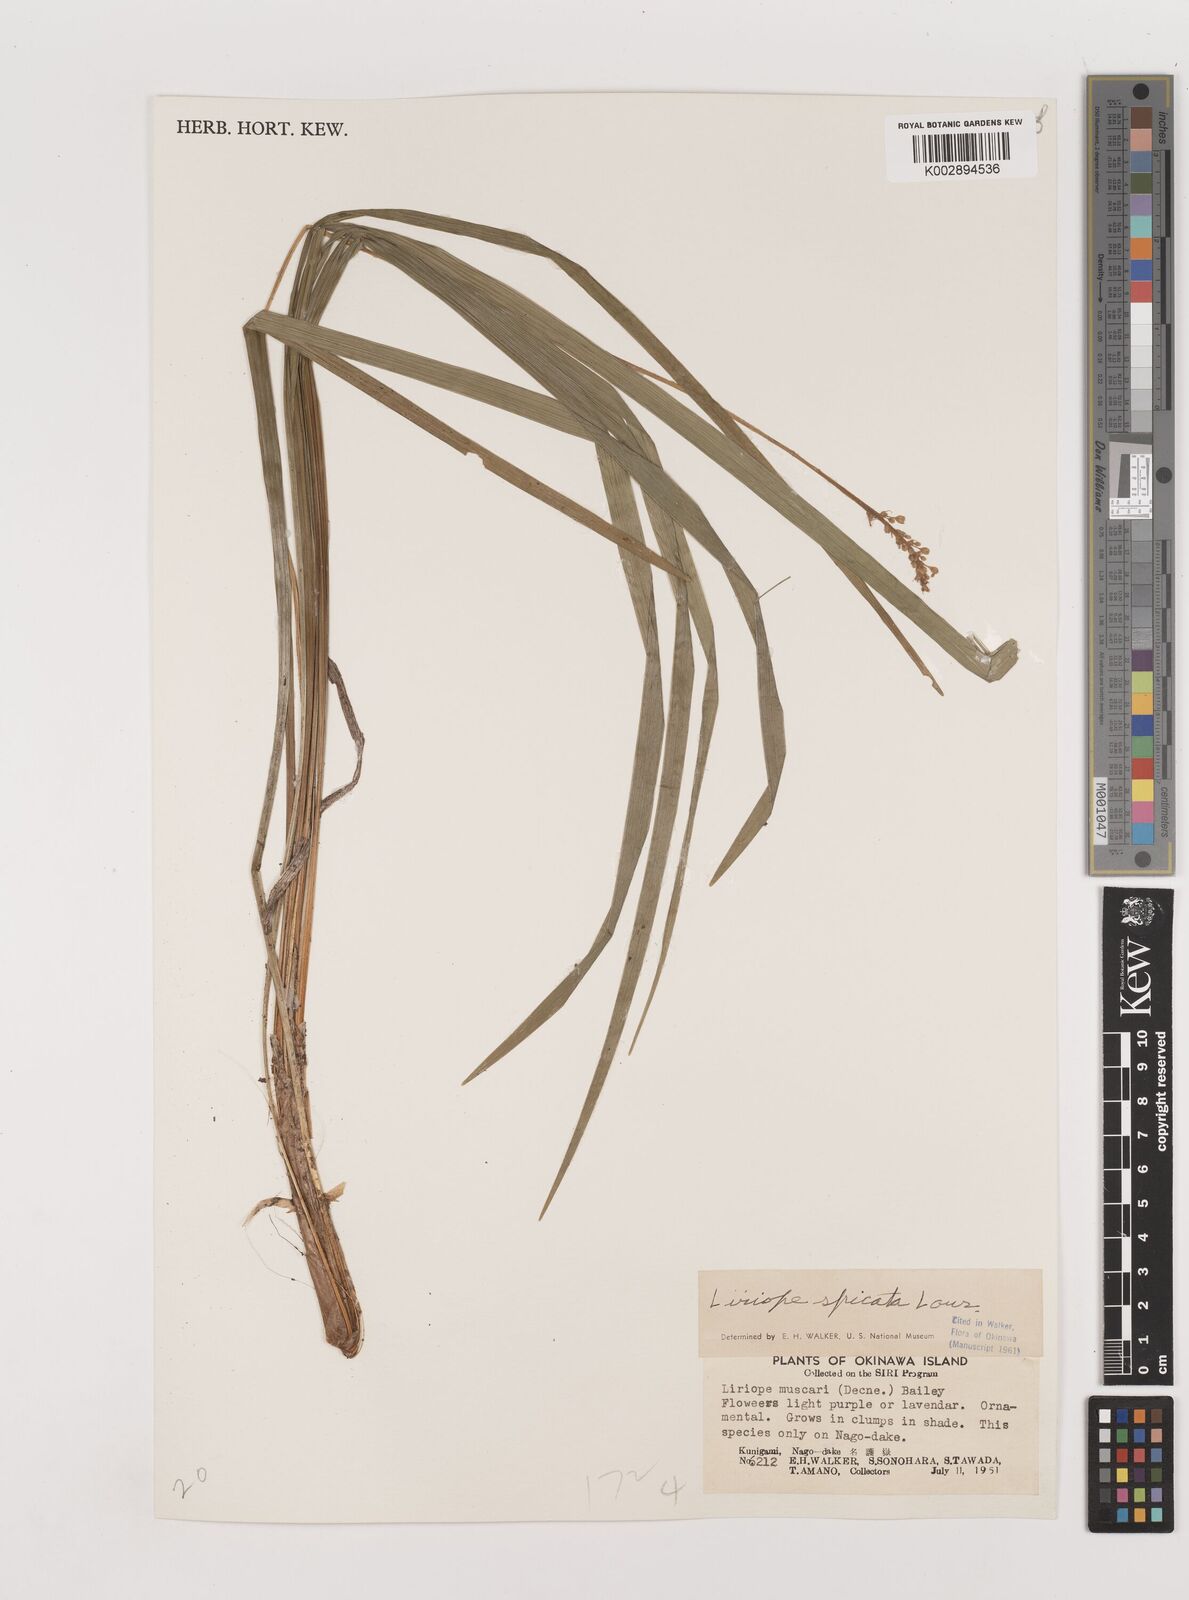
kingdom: Plantae
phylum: Tracheophyta
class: Liliopsida
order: Asparagales
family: Asparagaceae
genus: Liriope
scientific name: Liriope spicata
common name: Creeping liriope
